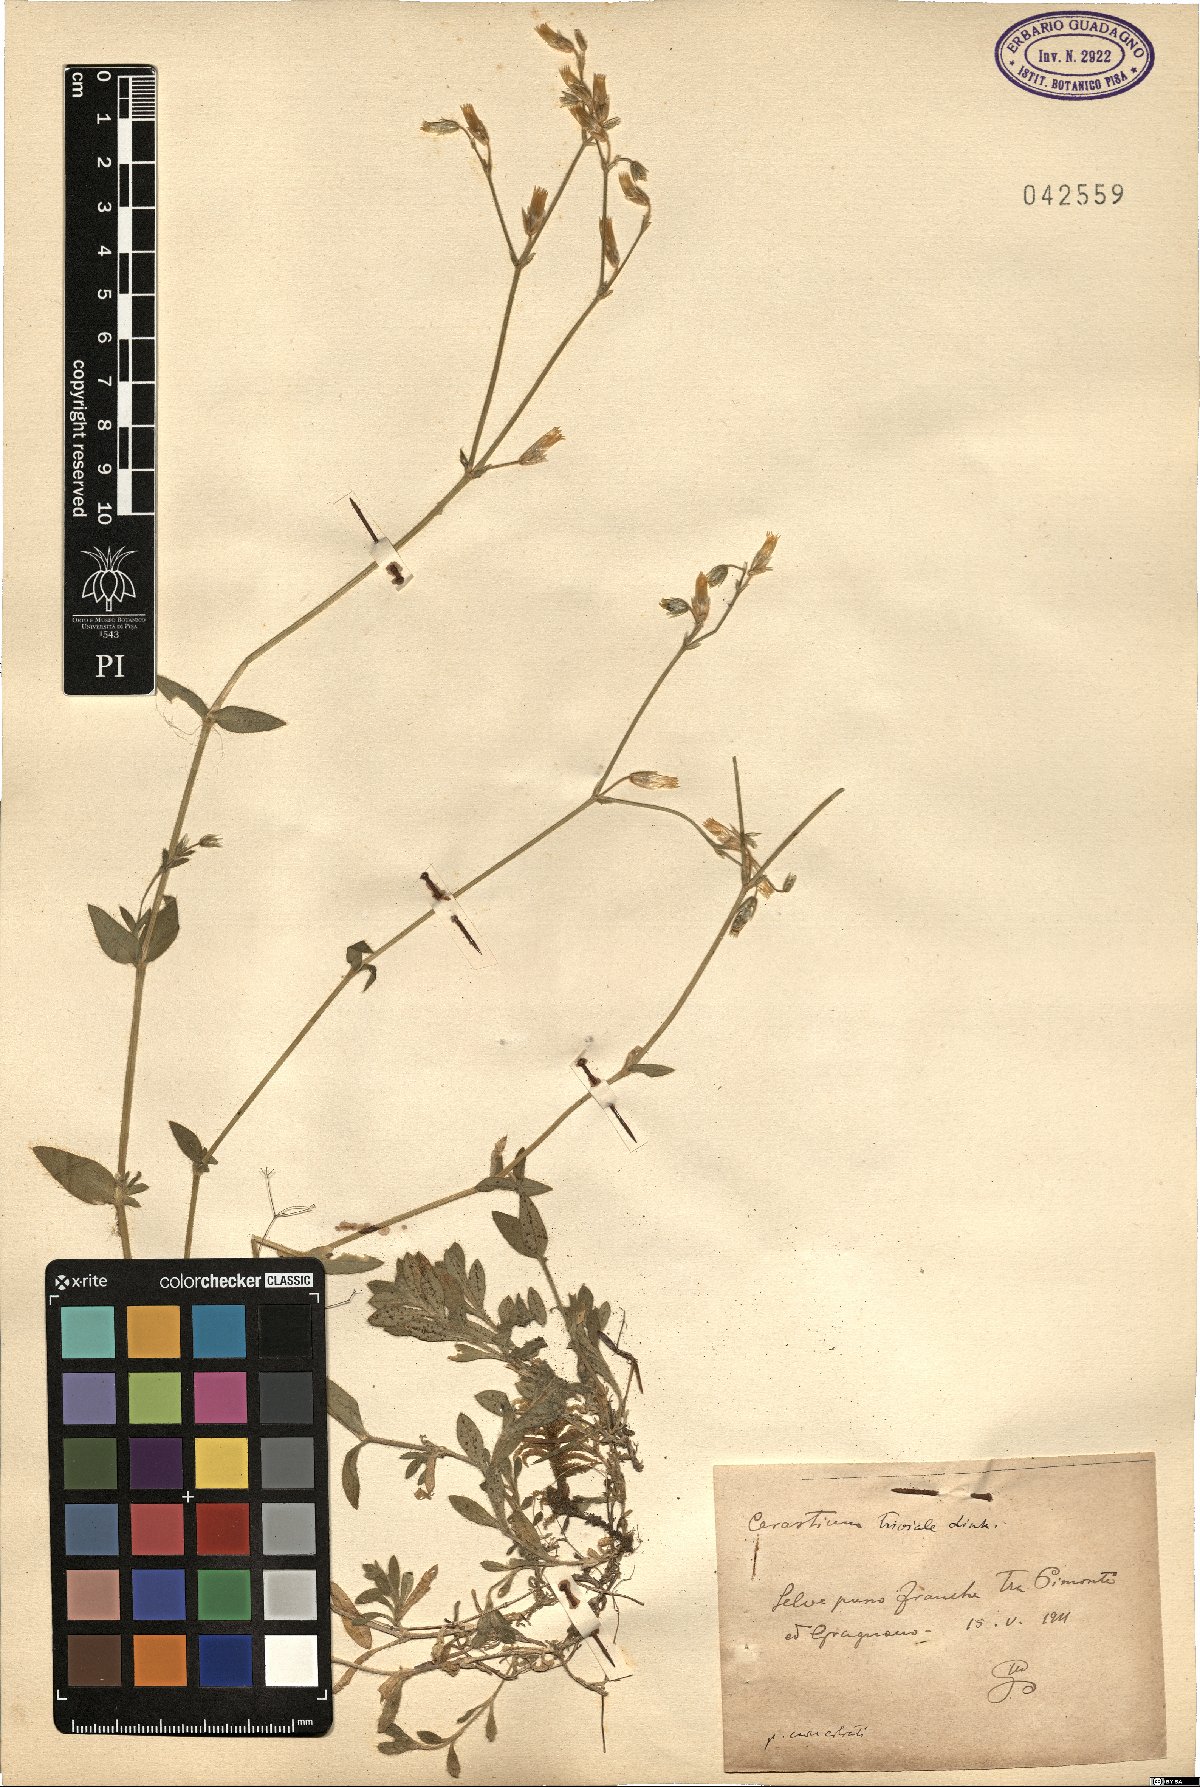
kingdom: Plantae
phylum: Tracheophyta
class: Magnoliopsida
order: Caryophyllales
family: Caryophyllaceae
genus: Cerastium
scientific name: Cerastium glomeratum
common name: Sticky chickweed
